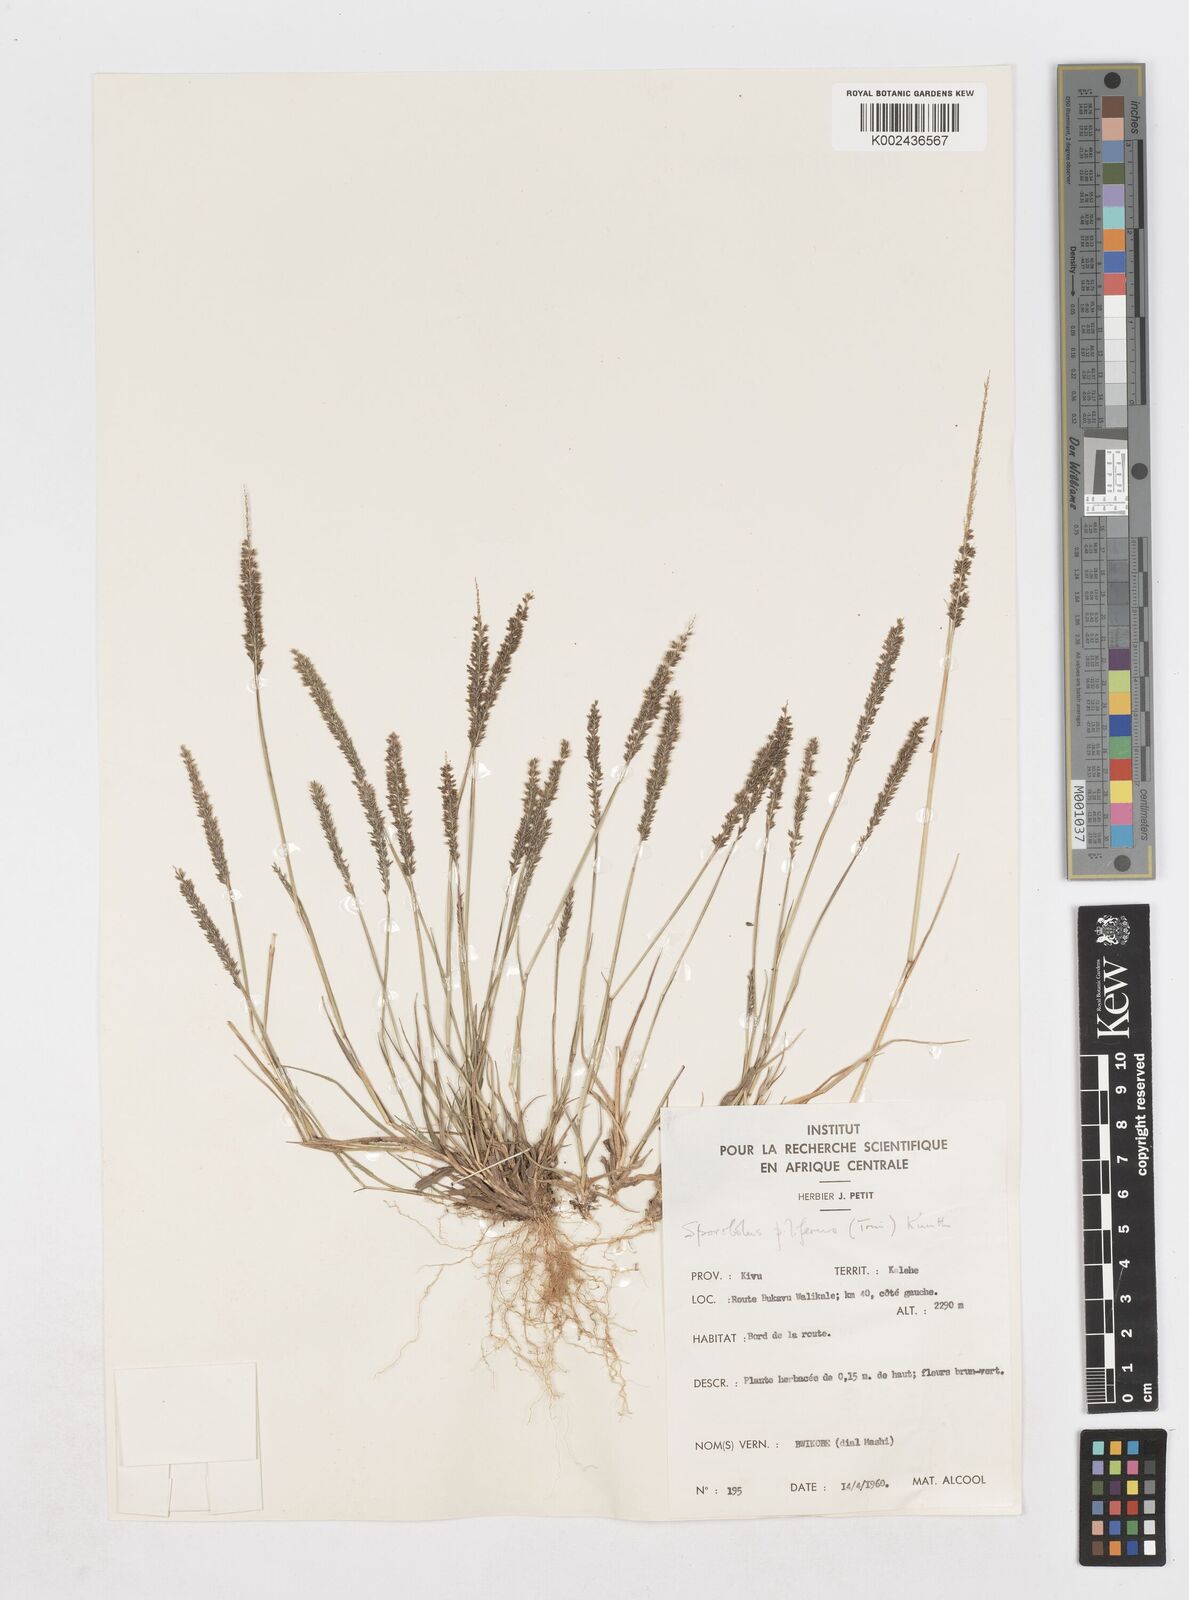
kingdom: Plantae
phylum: Tracheophyta
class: Liliopsida
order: Poales
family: Poaceae
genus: Sporobolus
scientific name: Sporobolus pilifer
